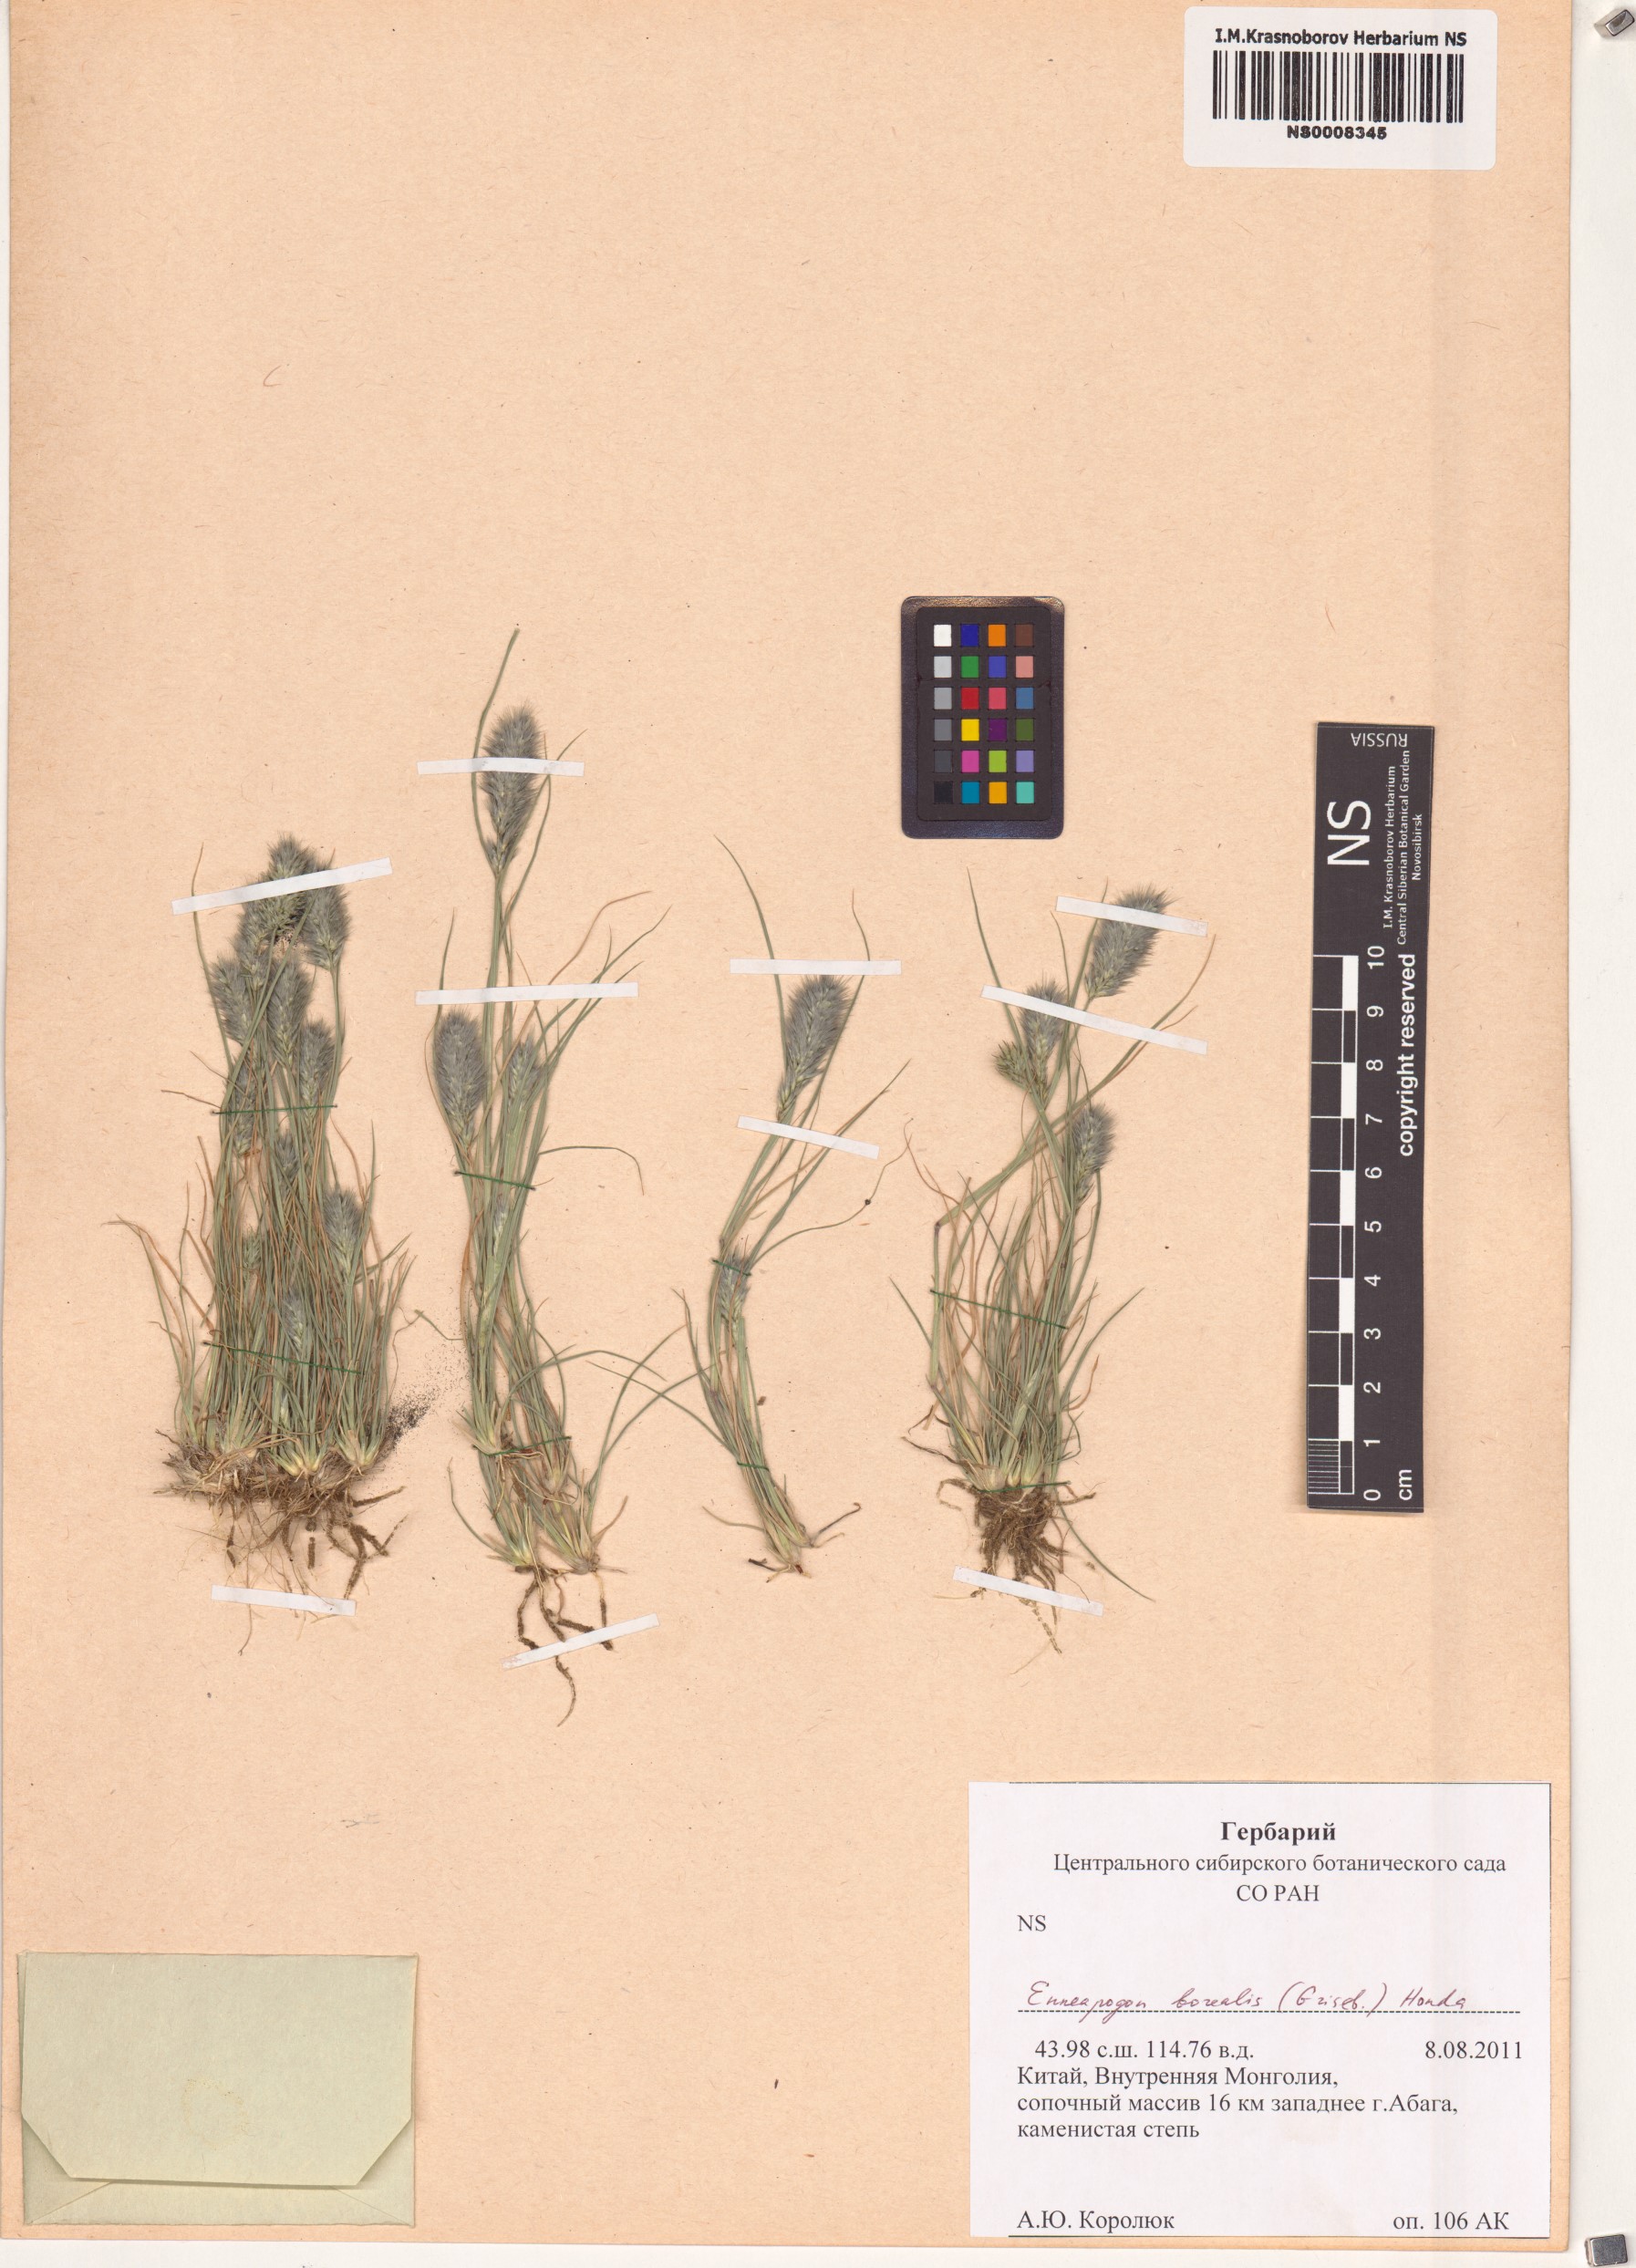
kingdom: Plantae
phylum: Tracheophyta
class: Liliopsida
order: Poales
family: Poaceae
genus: Enneapogon
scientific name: Enneapogon desvauxii
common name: Feather pappus grass
